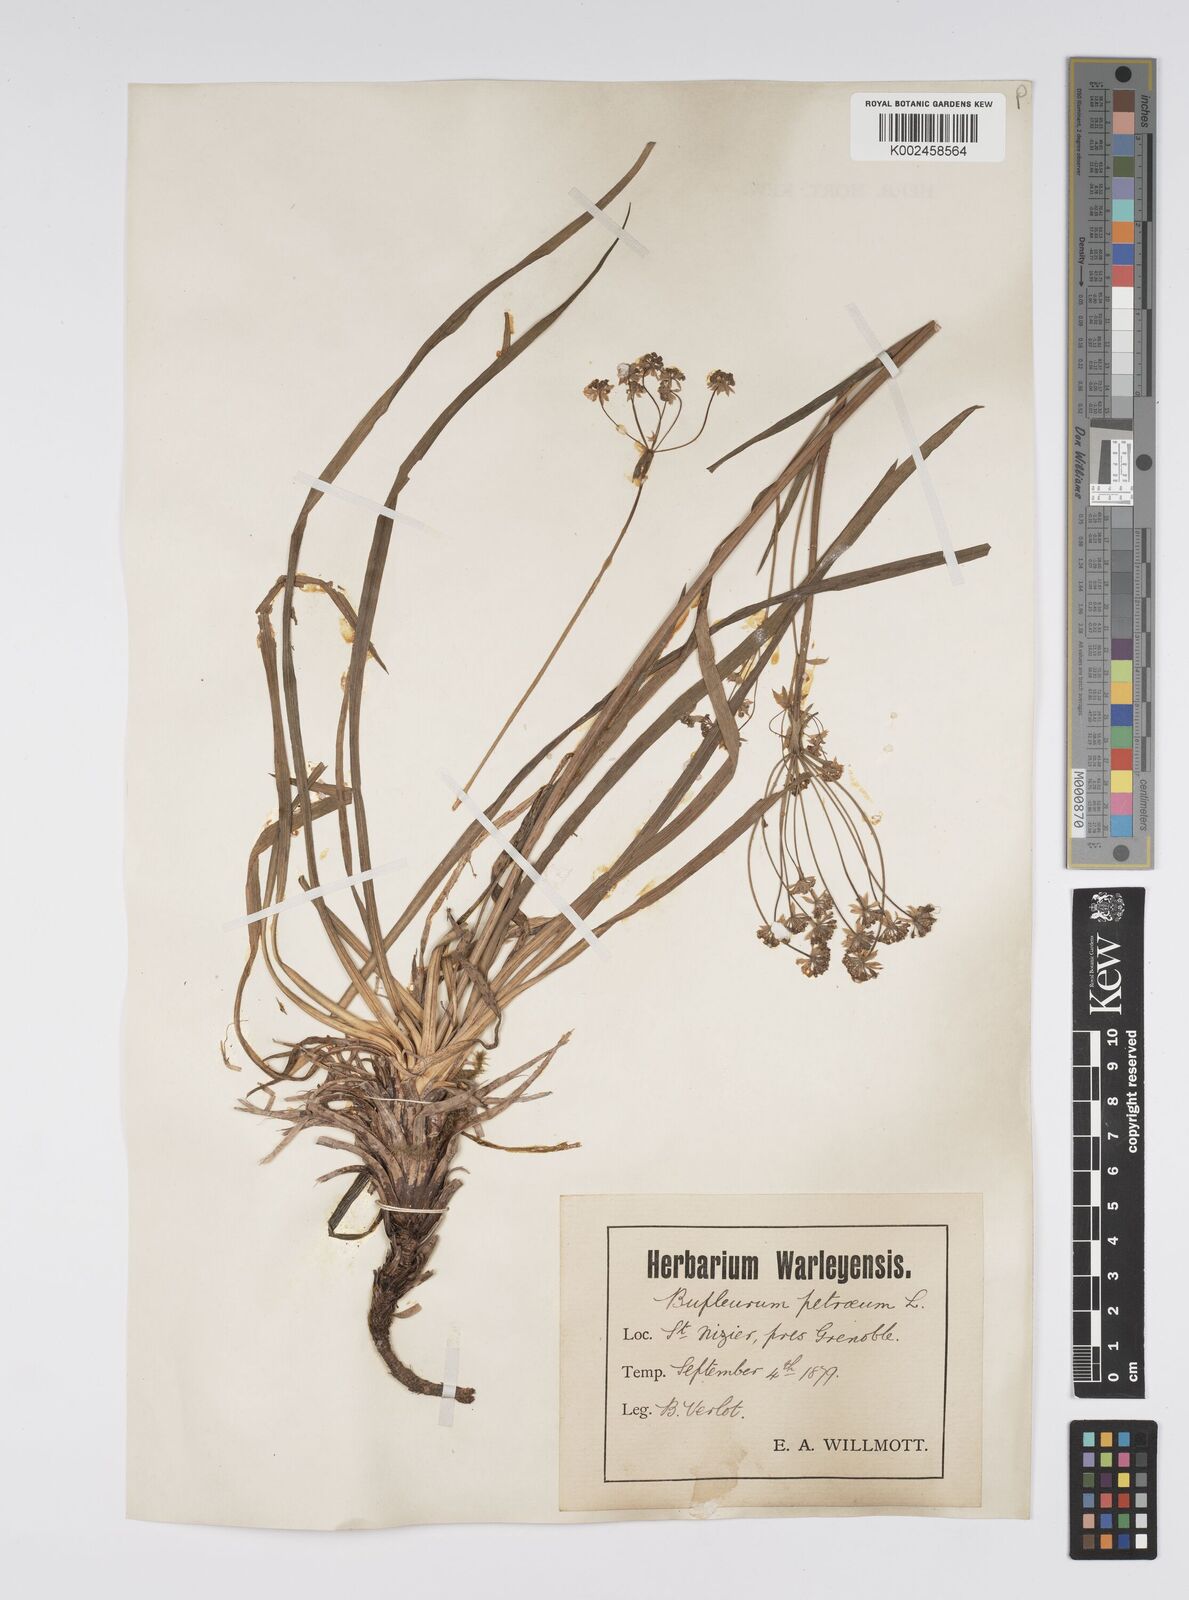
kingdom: Plantae
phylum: Tracheophyta
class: Magnoliopsida
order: Apiales
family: Apiaceae
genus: Bupleurum
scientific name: Bupleurum petraeum
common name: Rock hare's-ear
